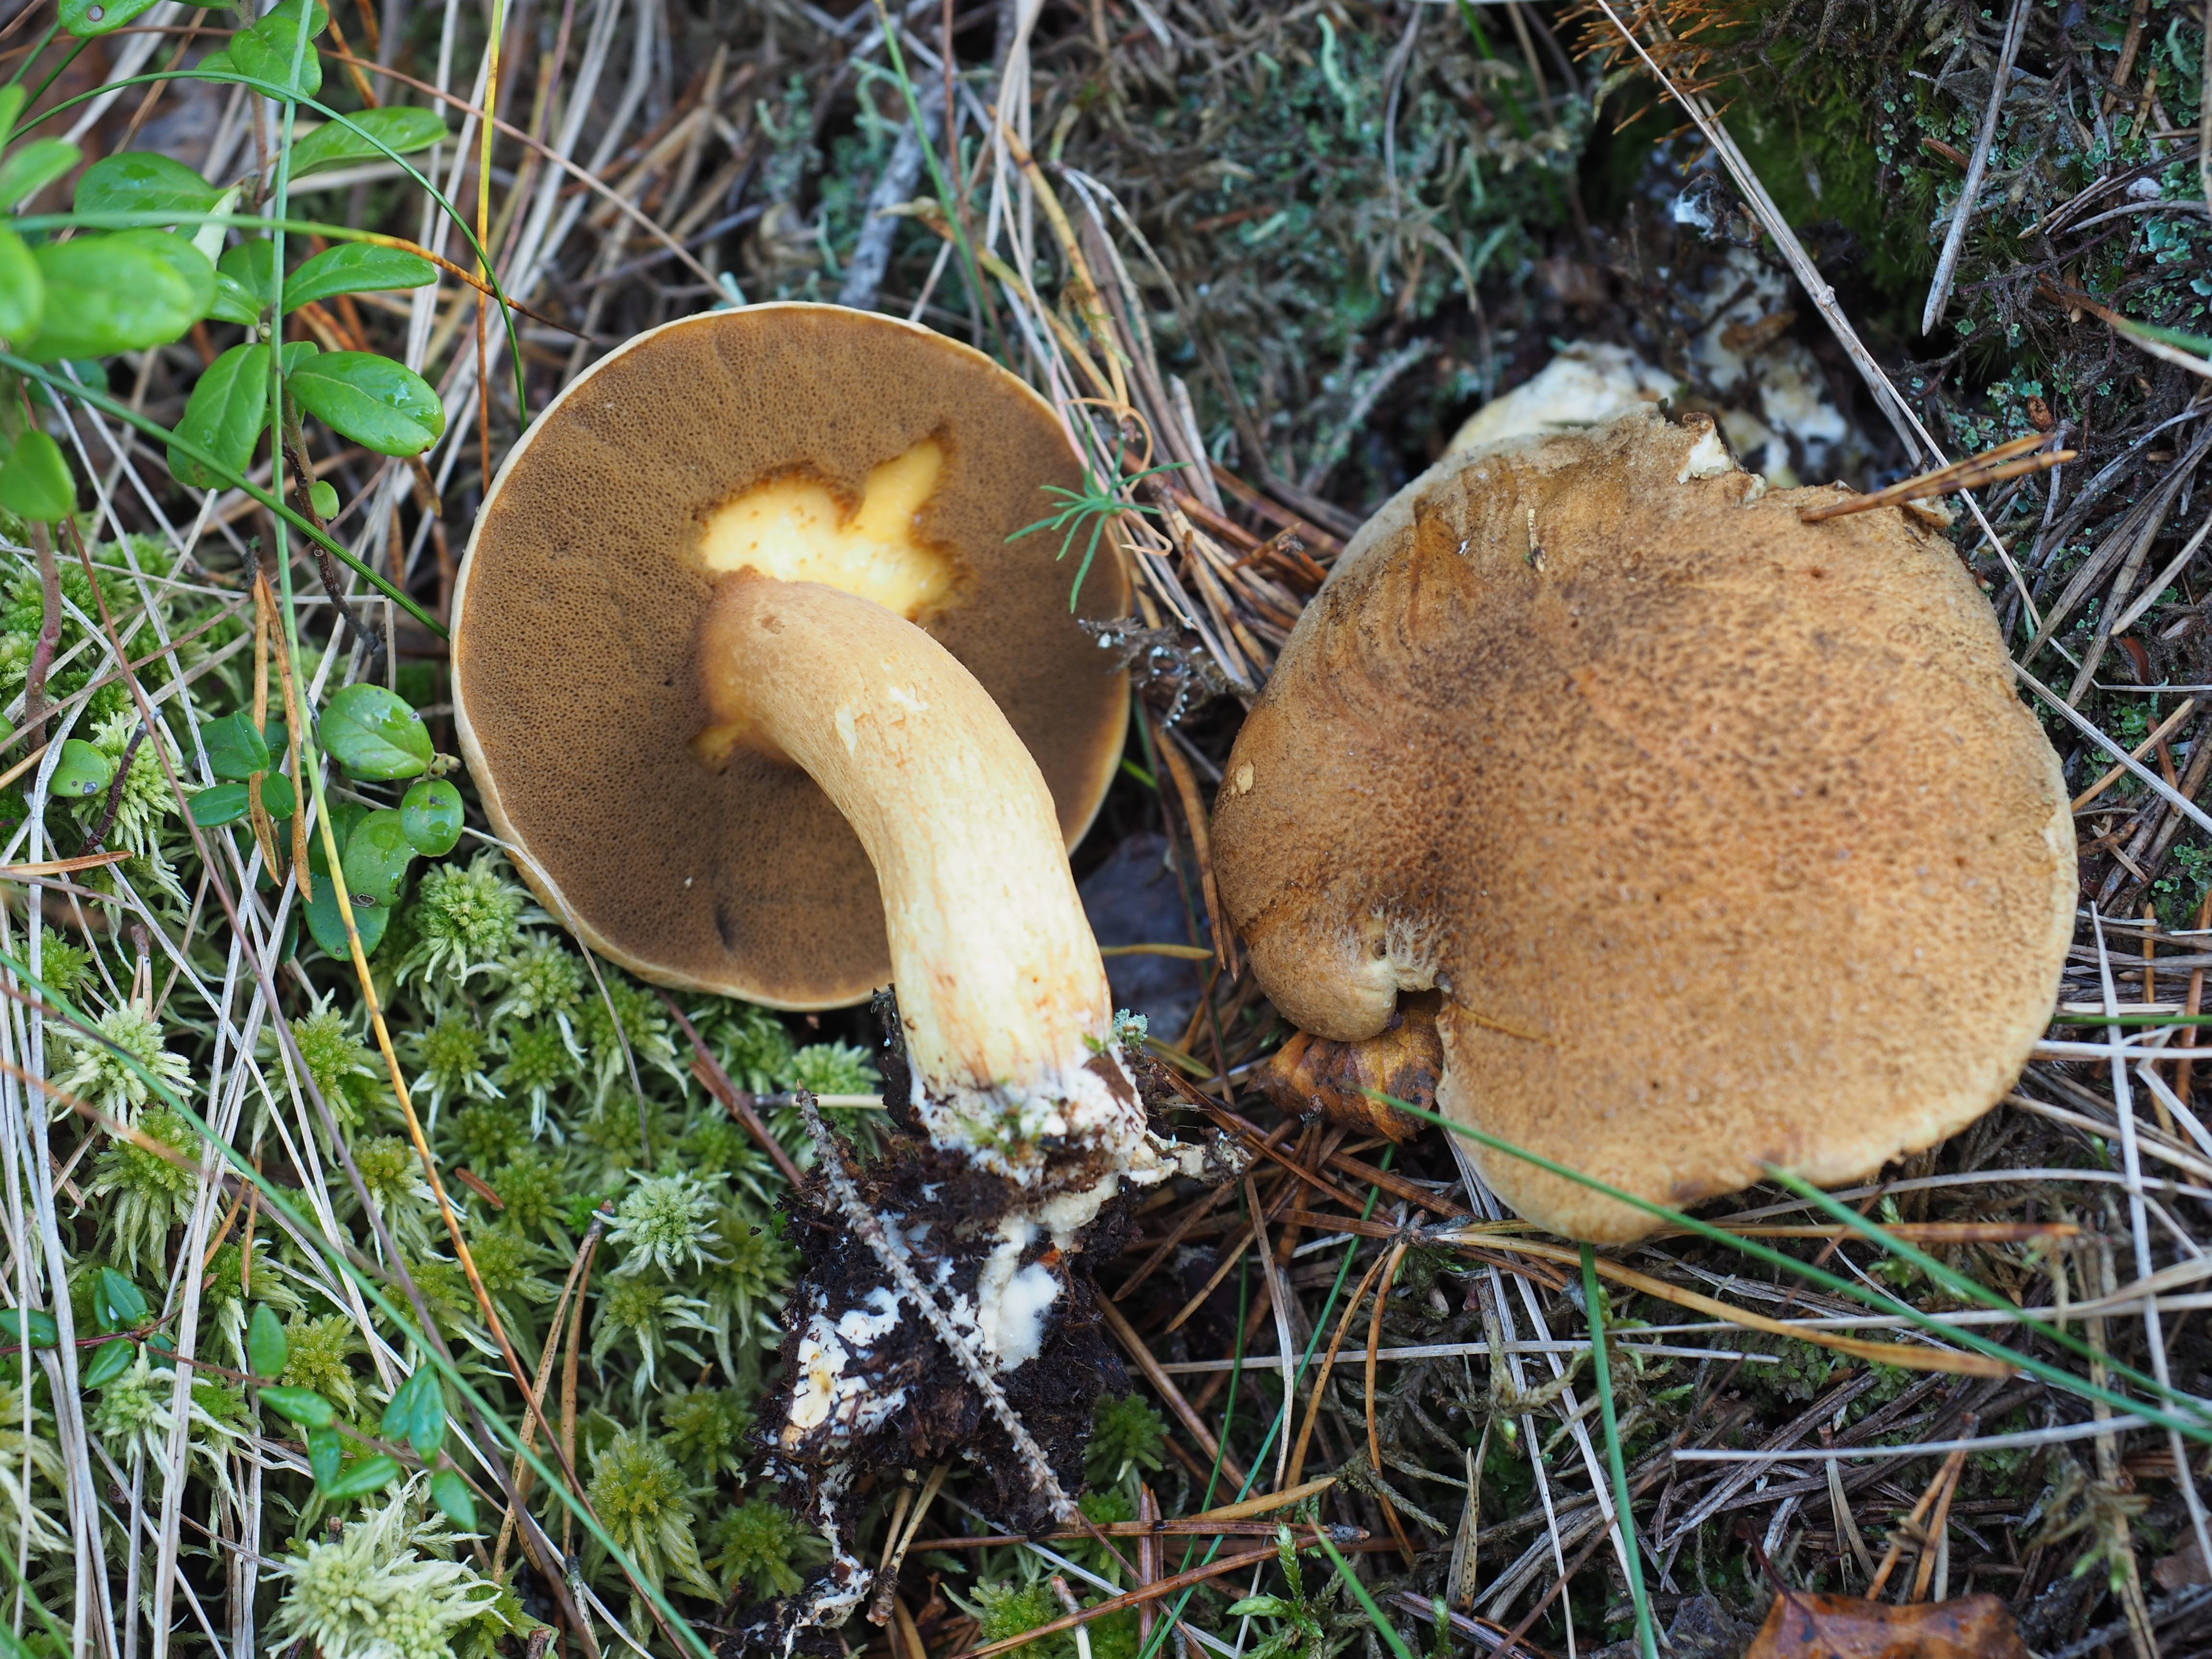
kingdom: Fungi
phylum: Basidiomycota
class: Agaricomycetes
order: Boletales
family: Suillaceae
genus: Suillus
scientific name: Suillus variegatus
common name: Velvet bolete
